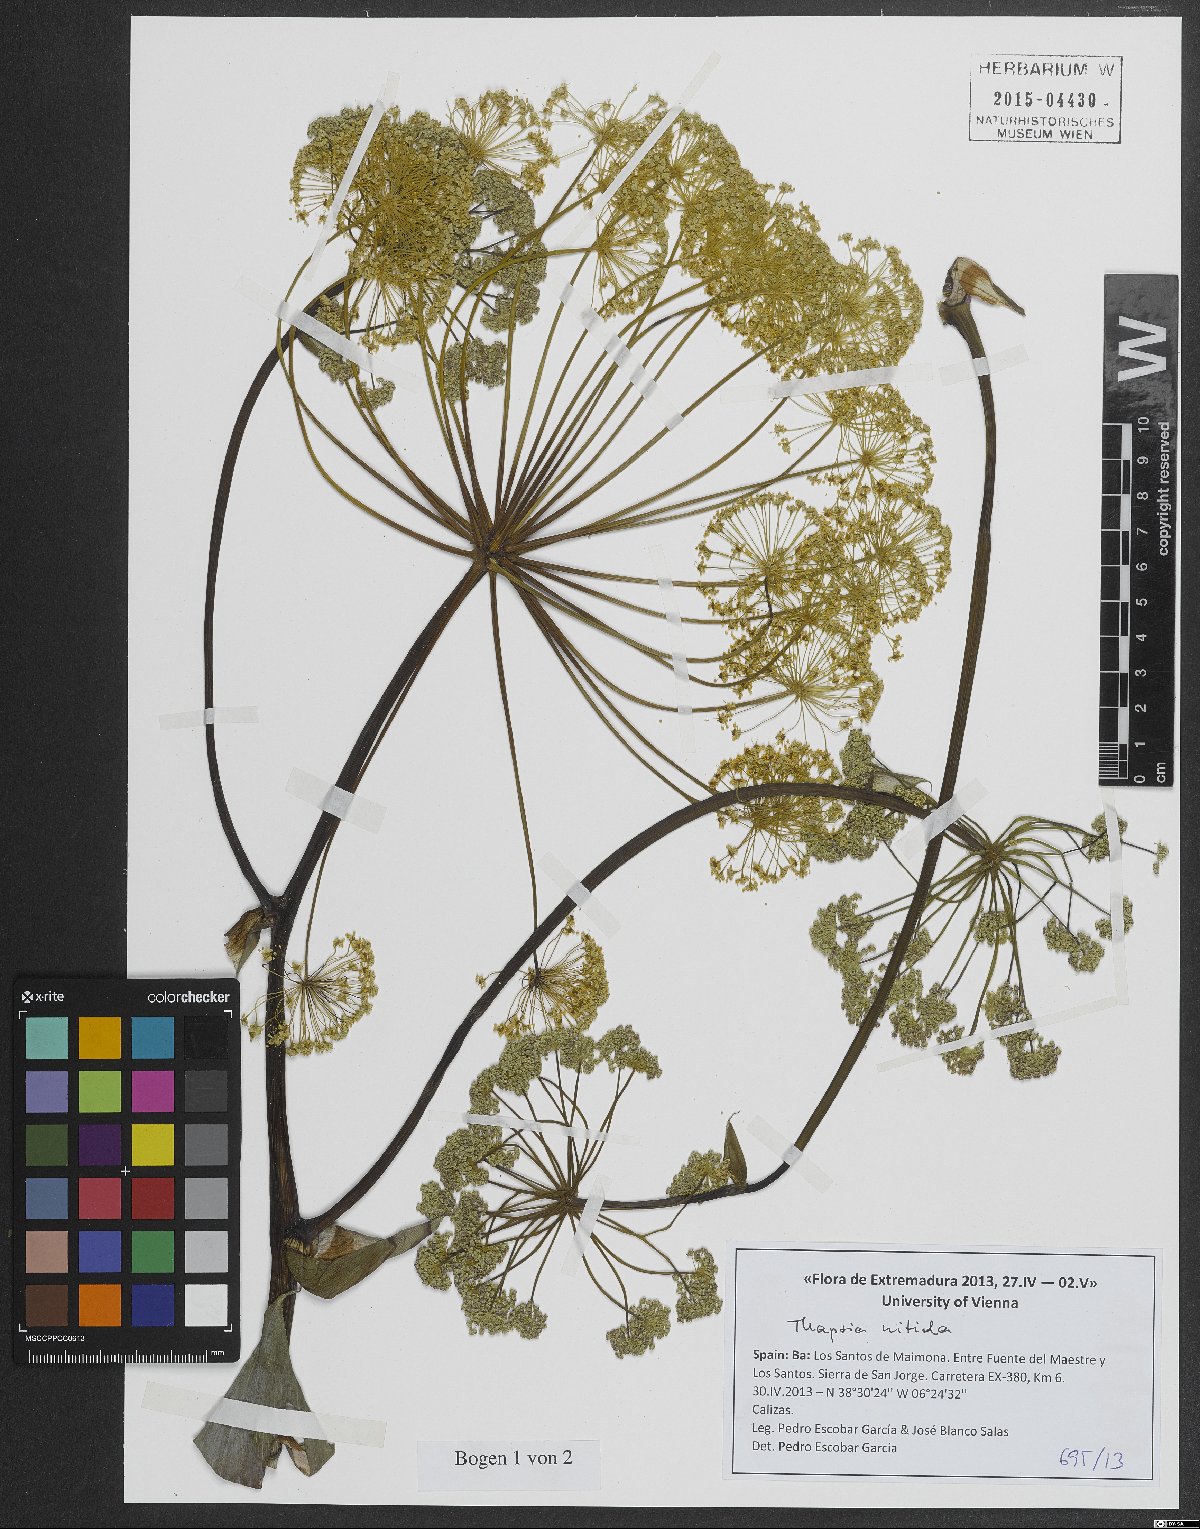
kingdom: Plantae
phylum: Tracheophyta
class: Magnoliopsida
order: Apiales
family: Apiaceae
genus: Thapsia
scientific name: Thapsia nitida
